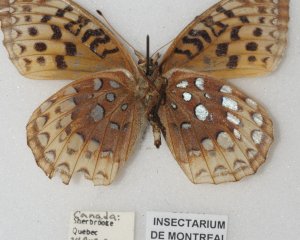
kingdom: Animalia
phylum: Arthropoda
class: Insecta
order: Lepidoptera
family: Nymphalidae
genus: Speyeria
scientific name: Speyeria cybele
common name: Great Spangled Fritillary
